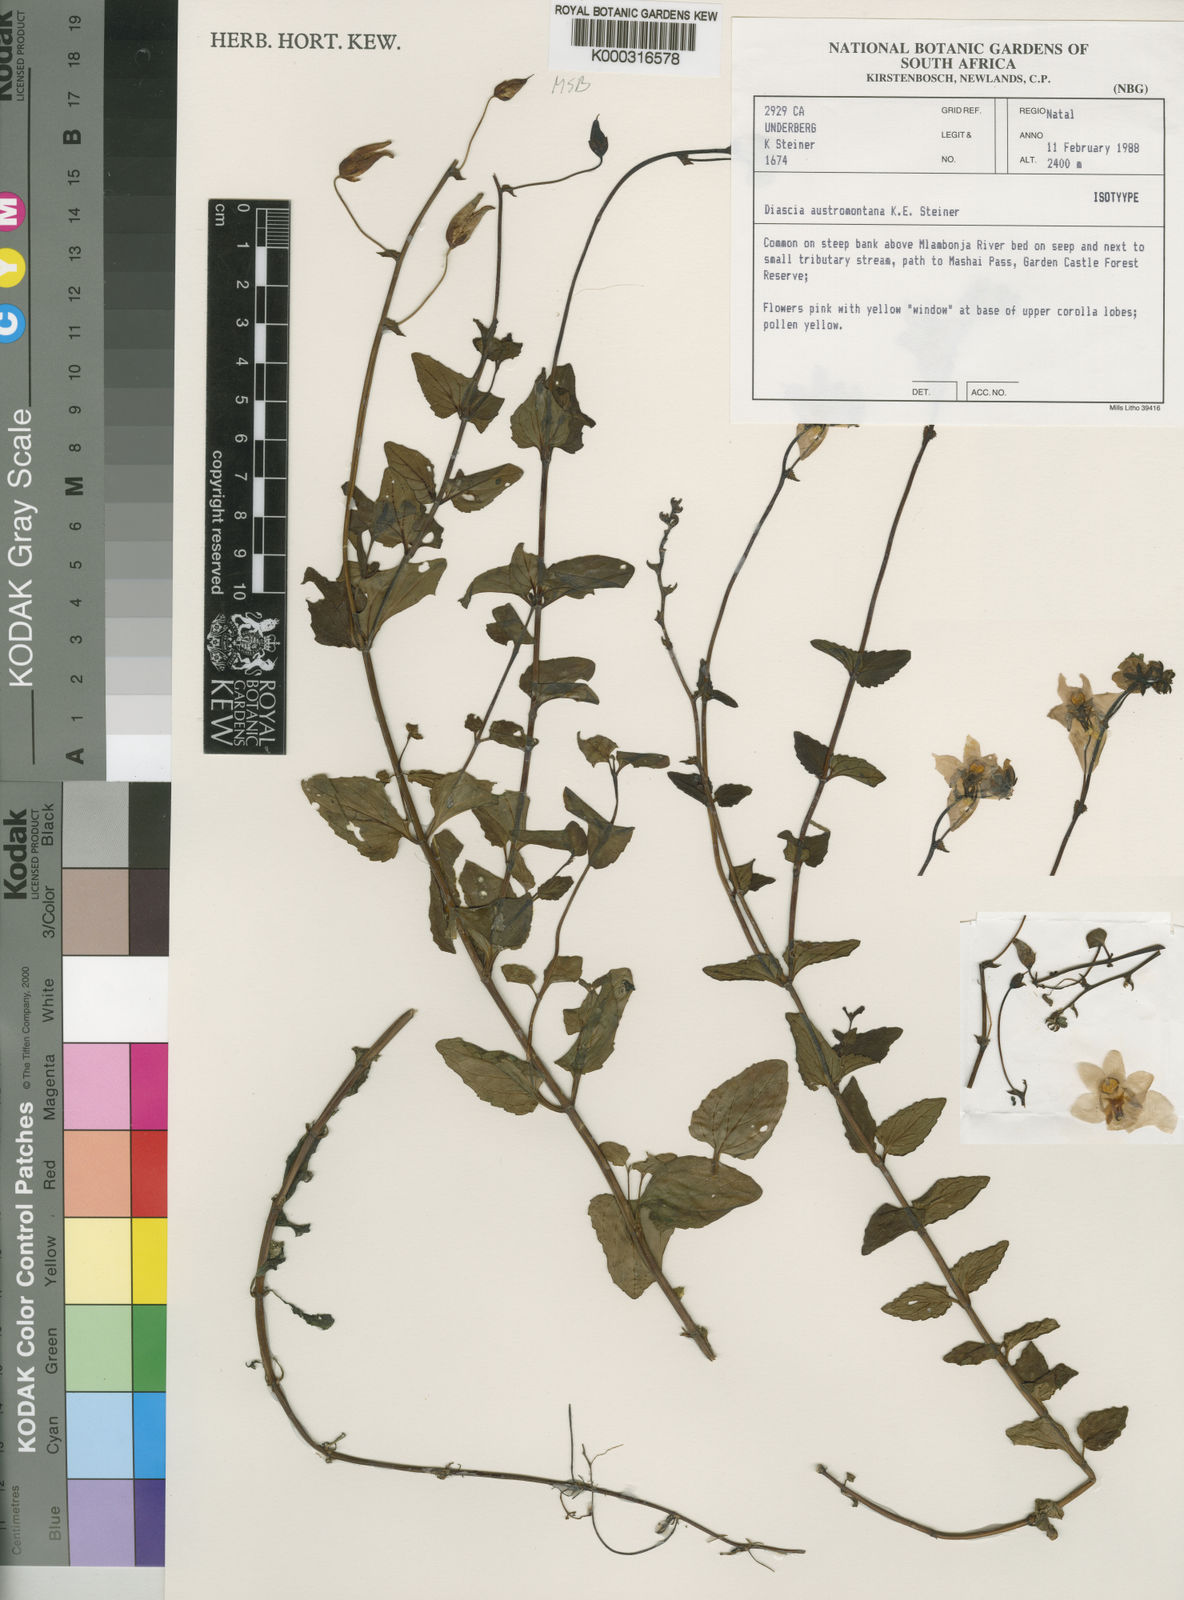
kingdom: Plantae
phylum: Tracheophyta
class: Magnoliopsida
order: Lamiales
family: Scrophulariaceae
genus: Diascia
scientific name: Diascia austromontana
